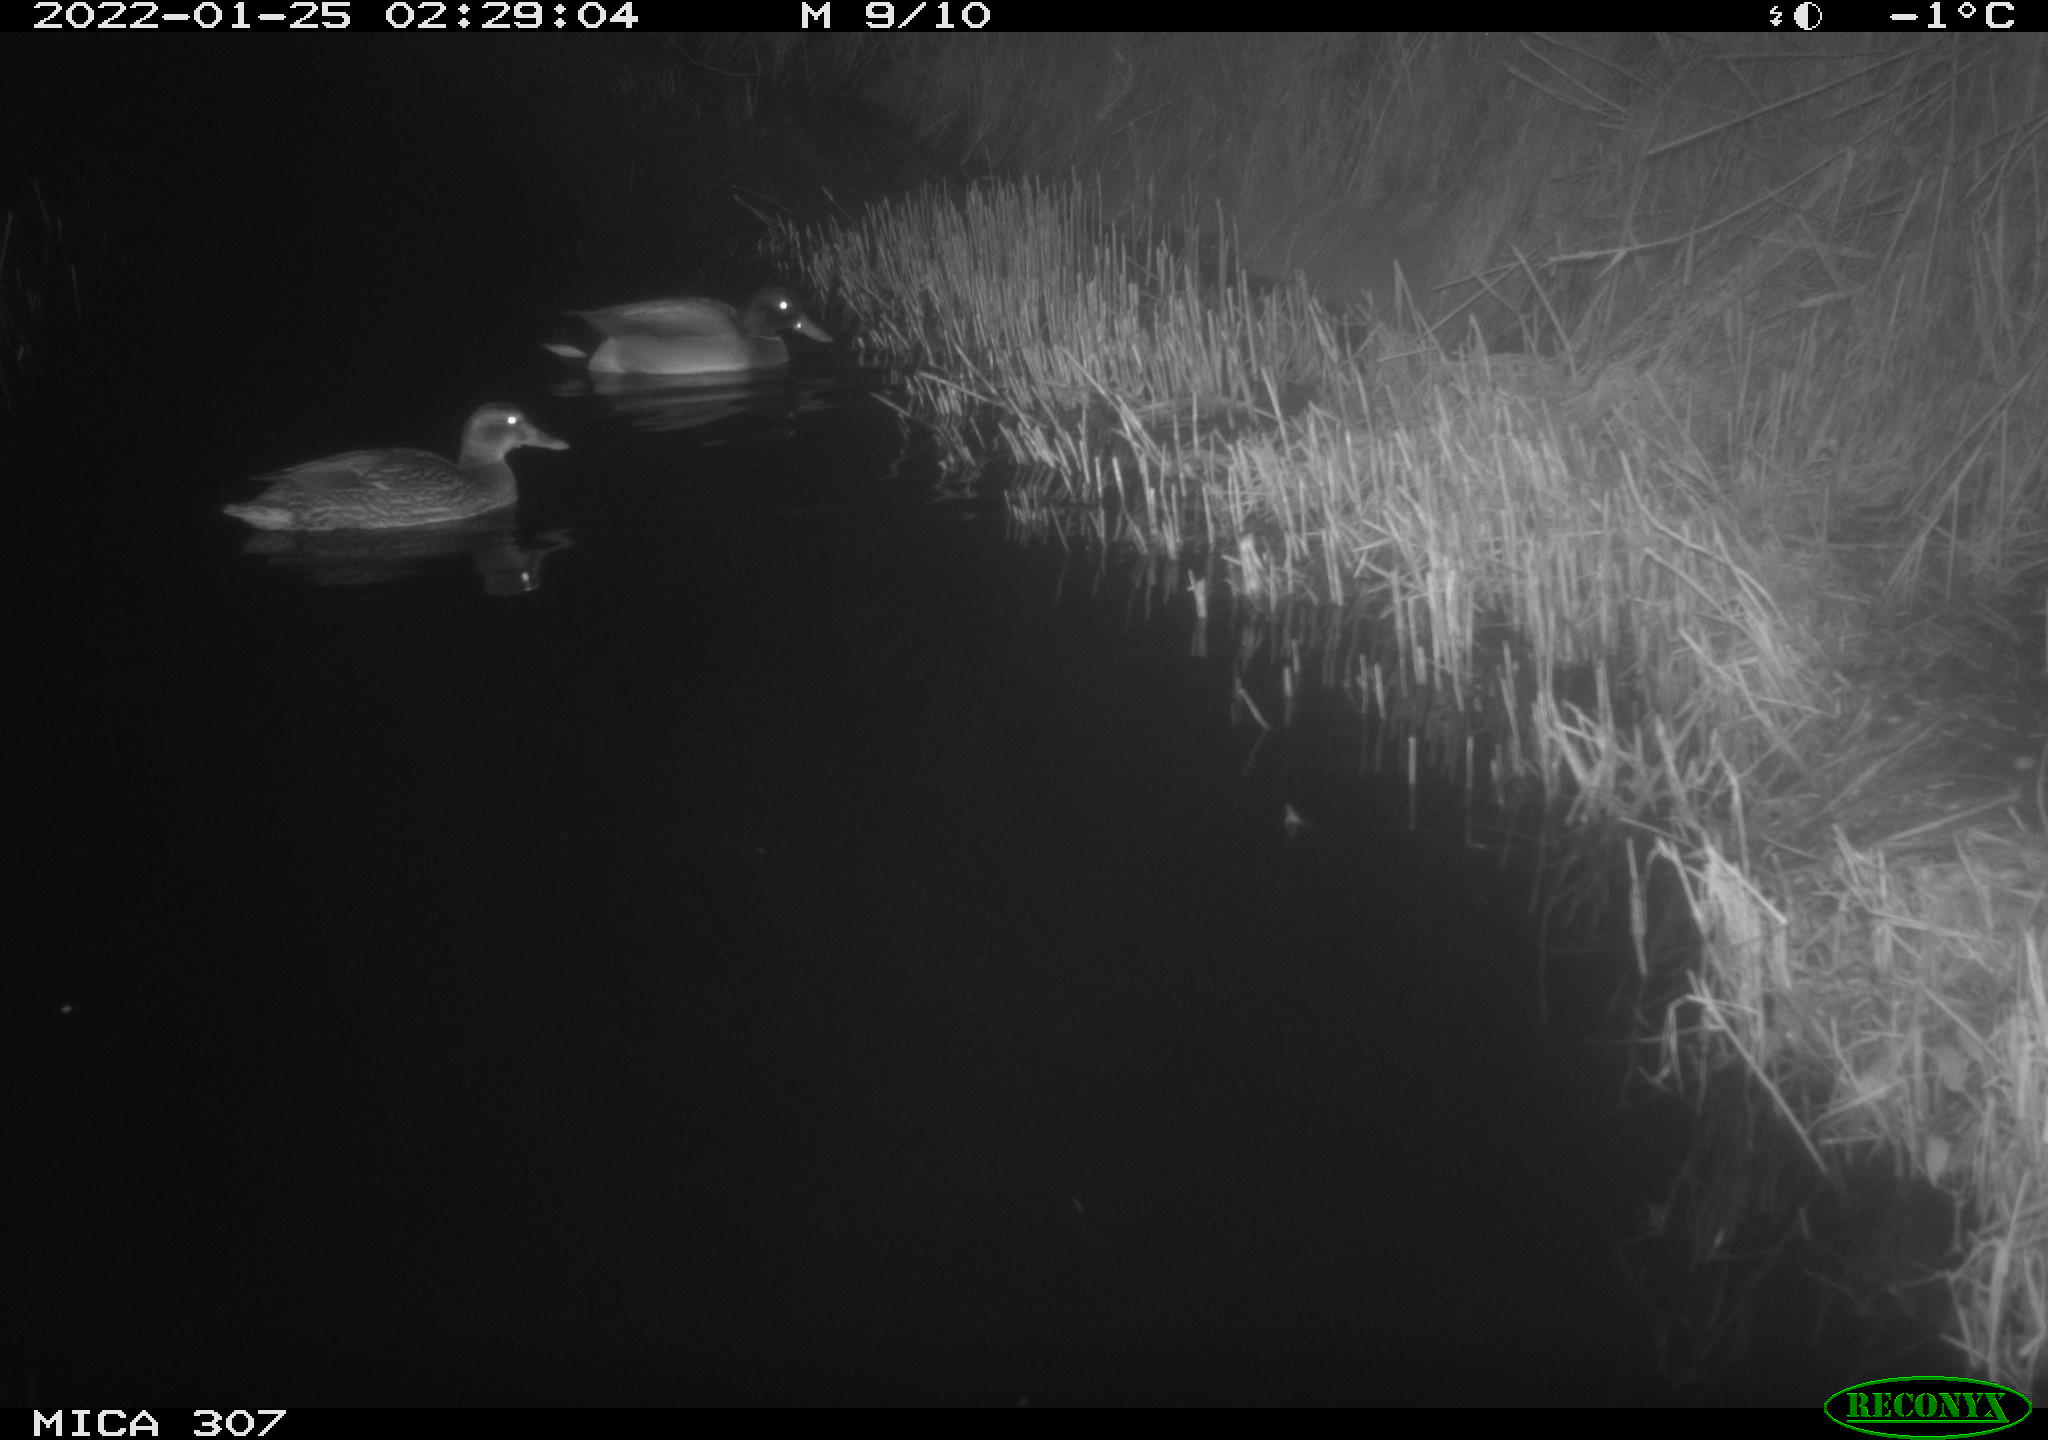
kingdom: Animalia
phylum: Chordata
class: Aves
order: Anseriformes
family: Anatidae
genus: Anas
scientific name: Anas
